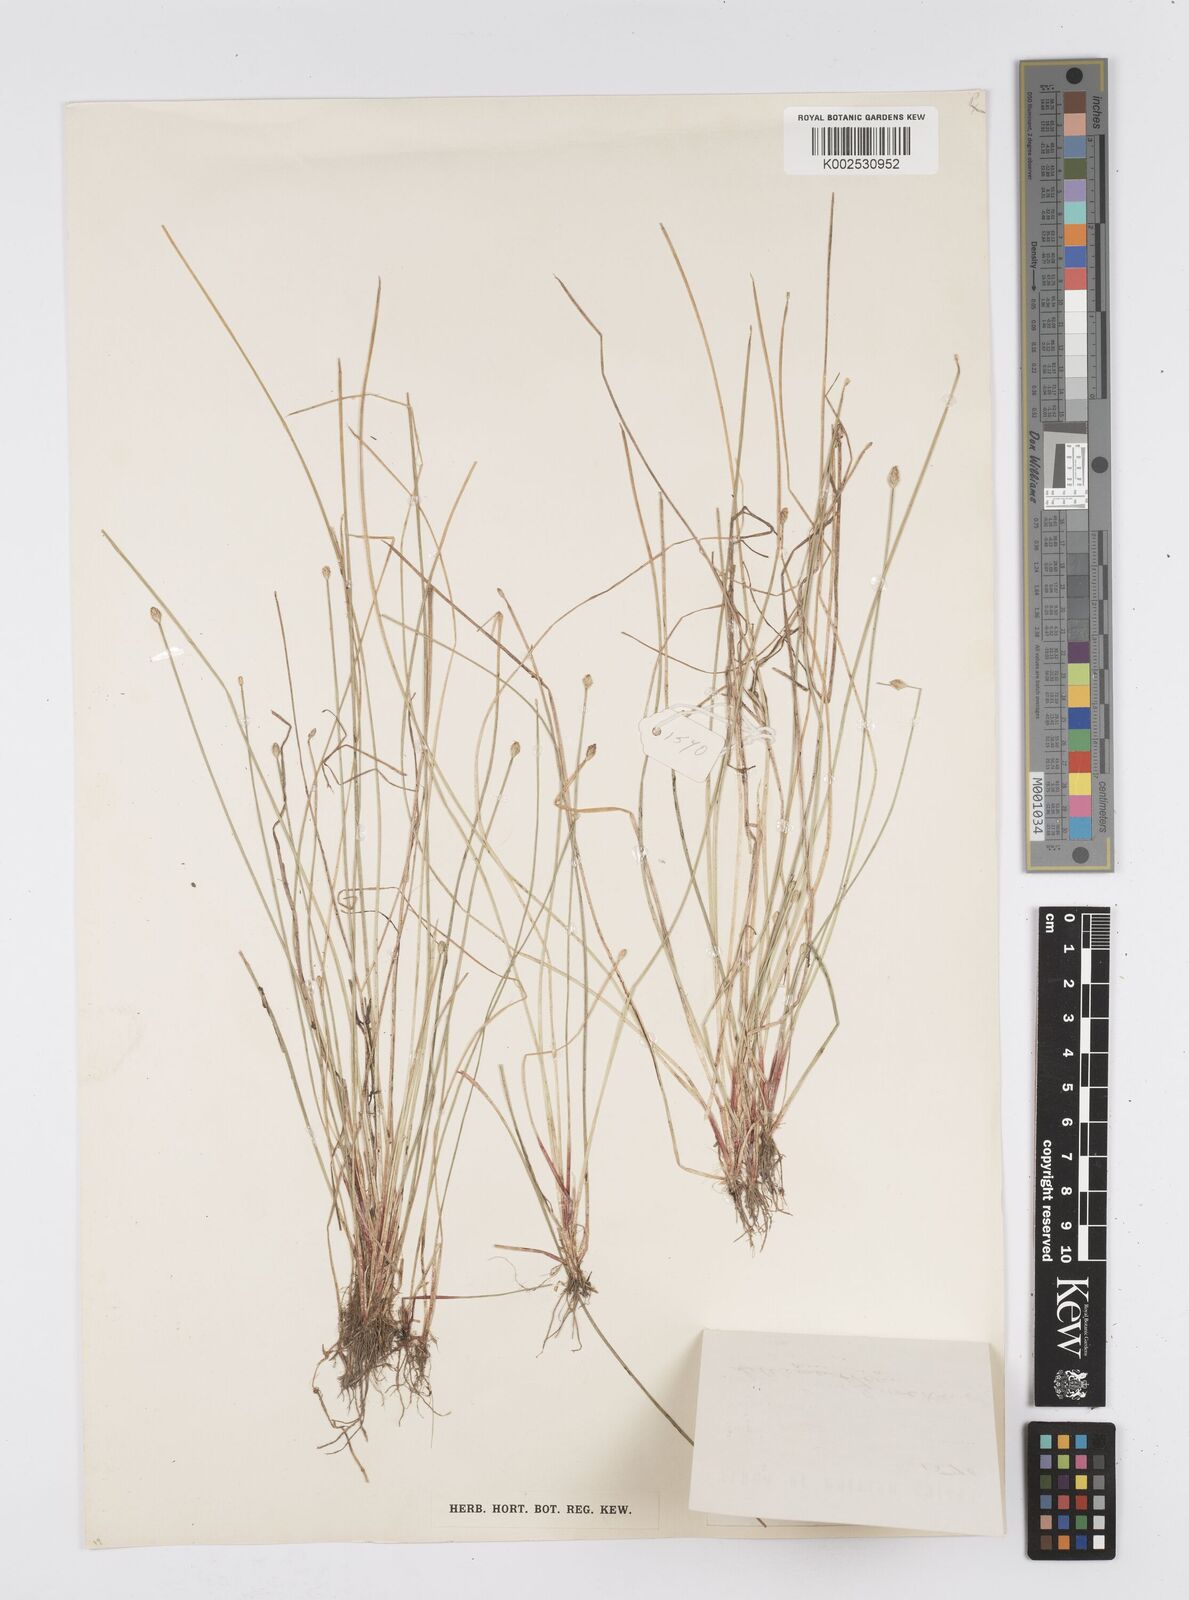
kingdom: Plantae
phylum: Tracheophyta
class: Liliopsida
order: Poales
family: Cyperaceae
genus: Eleocharis
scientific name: Eleocharis flavescens
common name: Yellow spikerush
